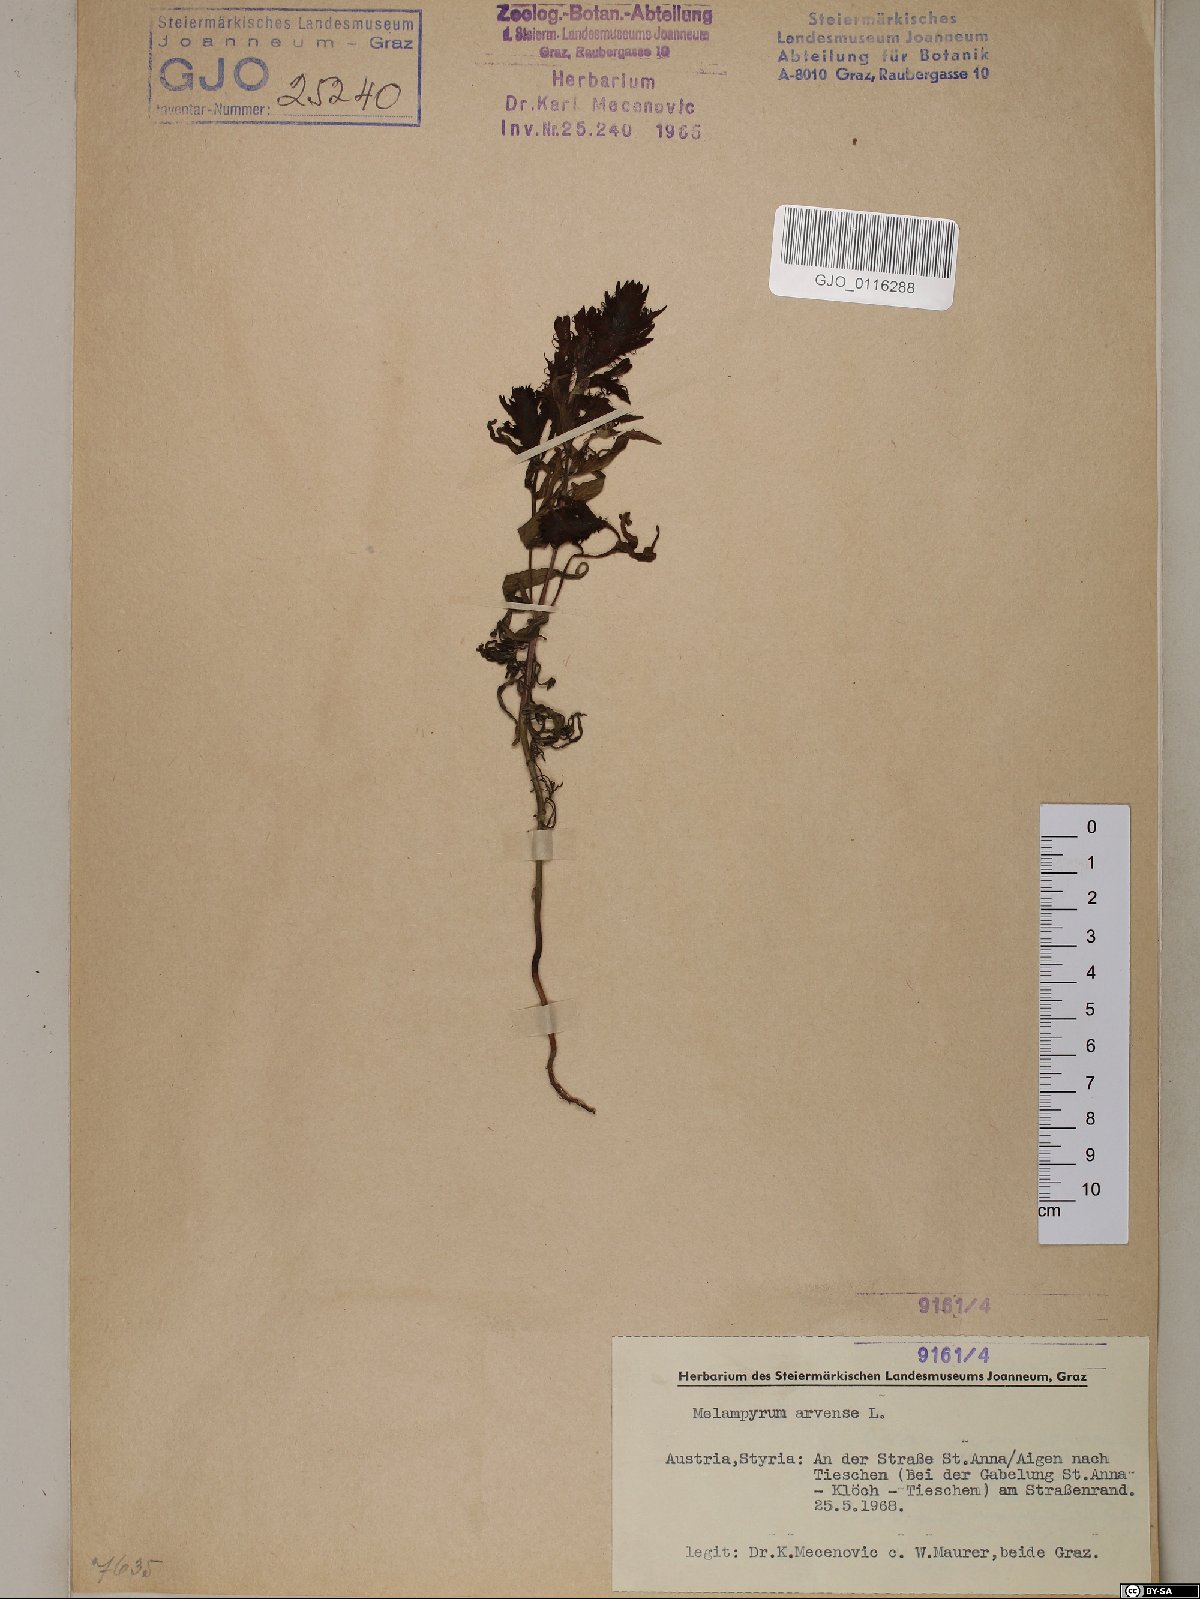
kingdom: Plantae
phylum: Tracheophyta
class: Magnoliopsida
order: Lamiales
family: Orobanchaceae
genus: Melampyrum
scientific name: Melampyrum arvense
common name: Field cow-wheat
